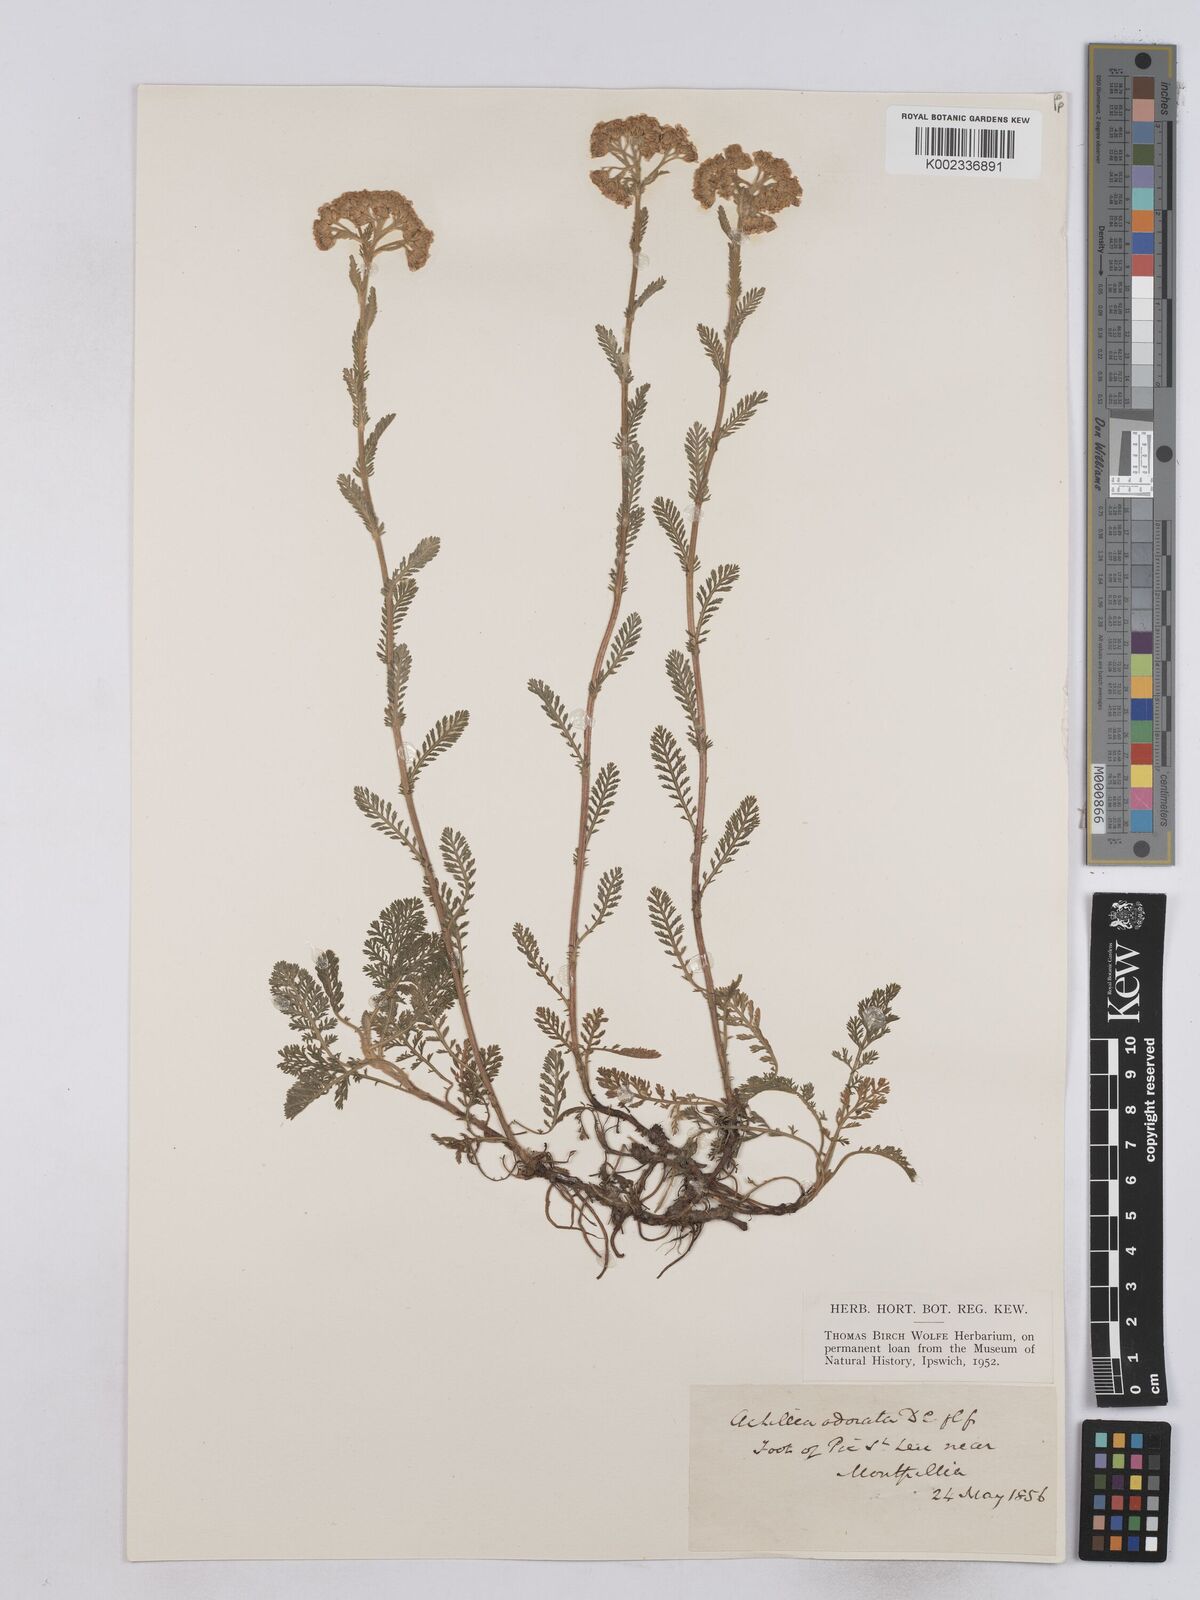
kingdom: Plantae
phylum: Tracheophyta
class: Magnoliopsida
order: Asterales
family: Asteraceae
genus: Achillea
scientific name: Achillea odorata
